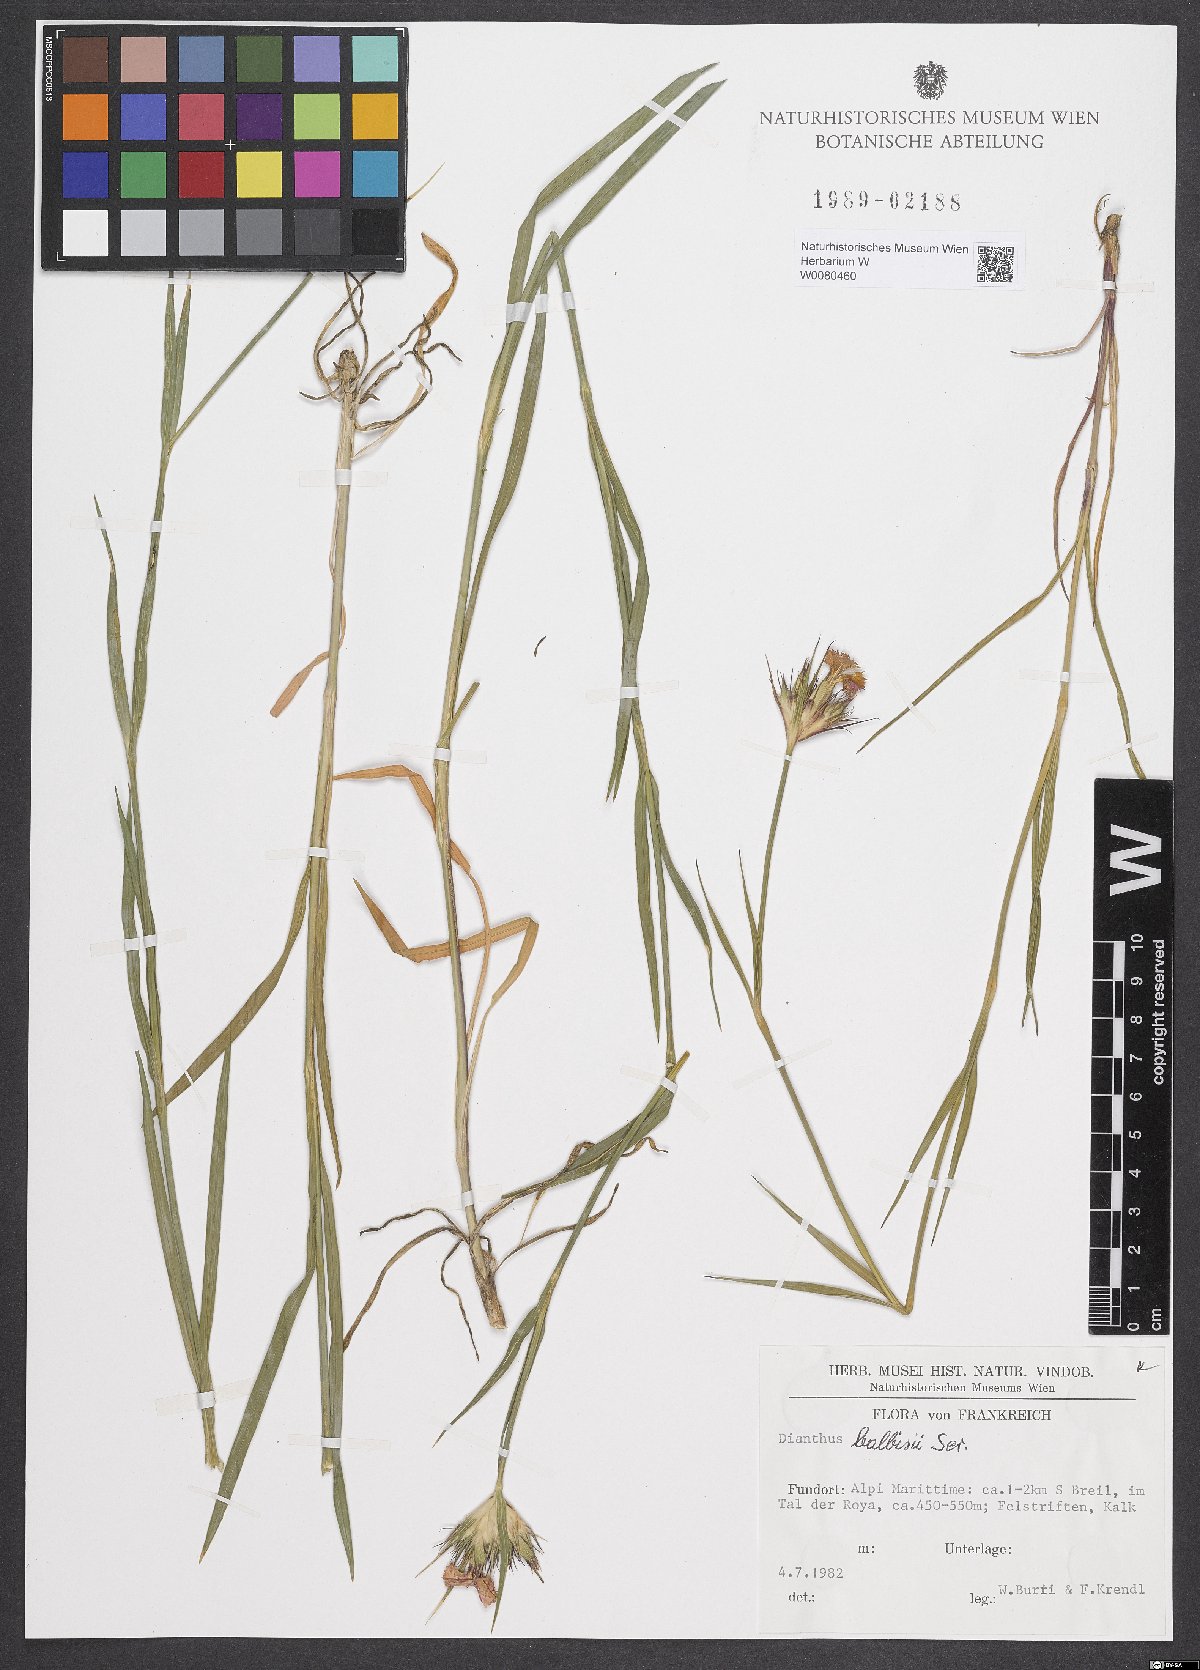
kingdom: Plantae
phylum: Tracheophyta
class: Magnoliopsida
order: Caryophyllales
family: Caryophyllaceae
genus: Dianthus
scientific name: Dianthus balbisii
